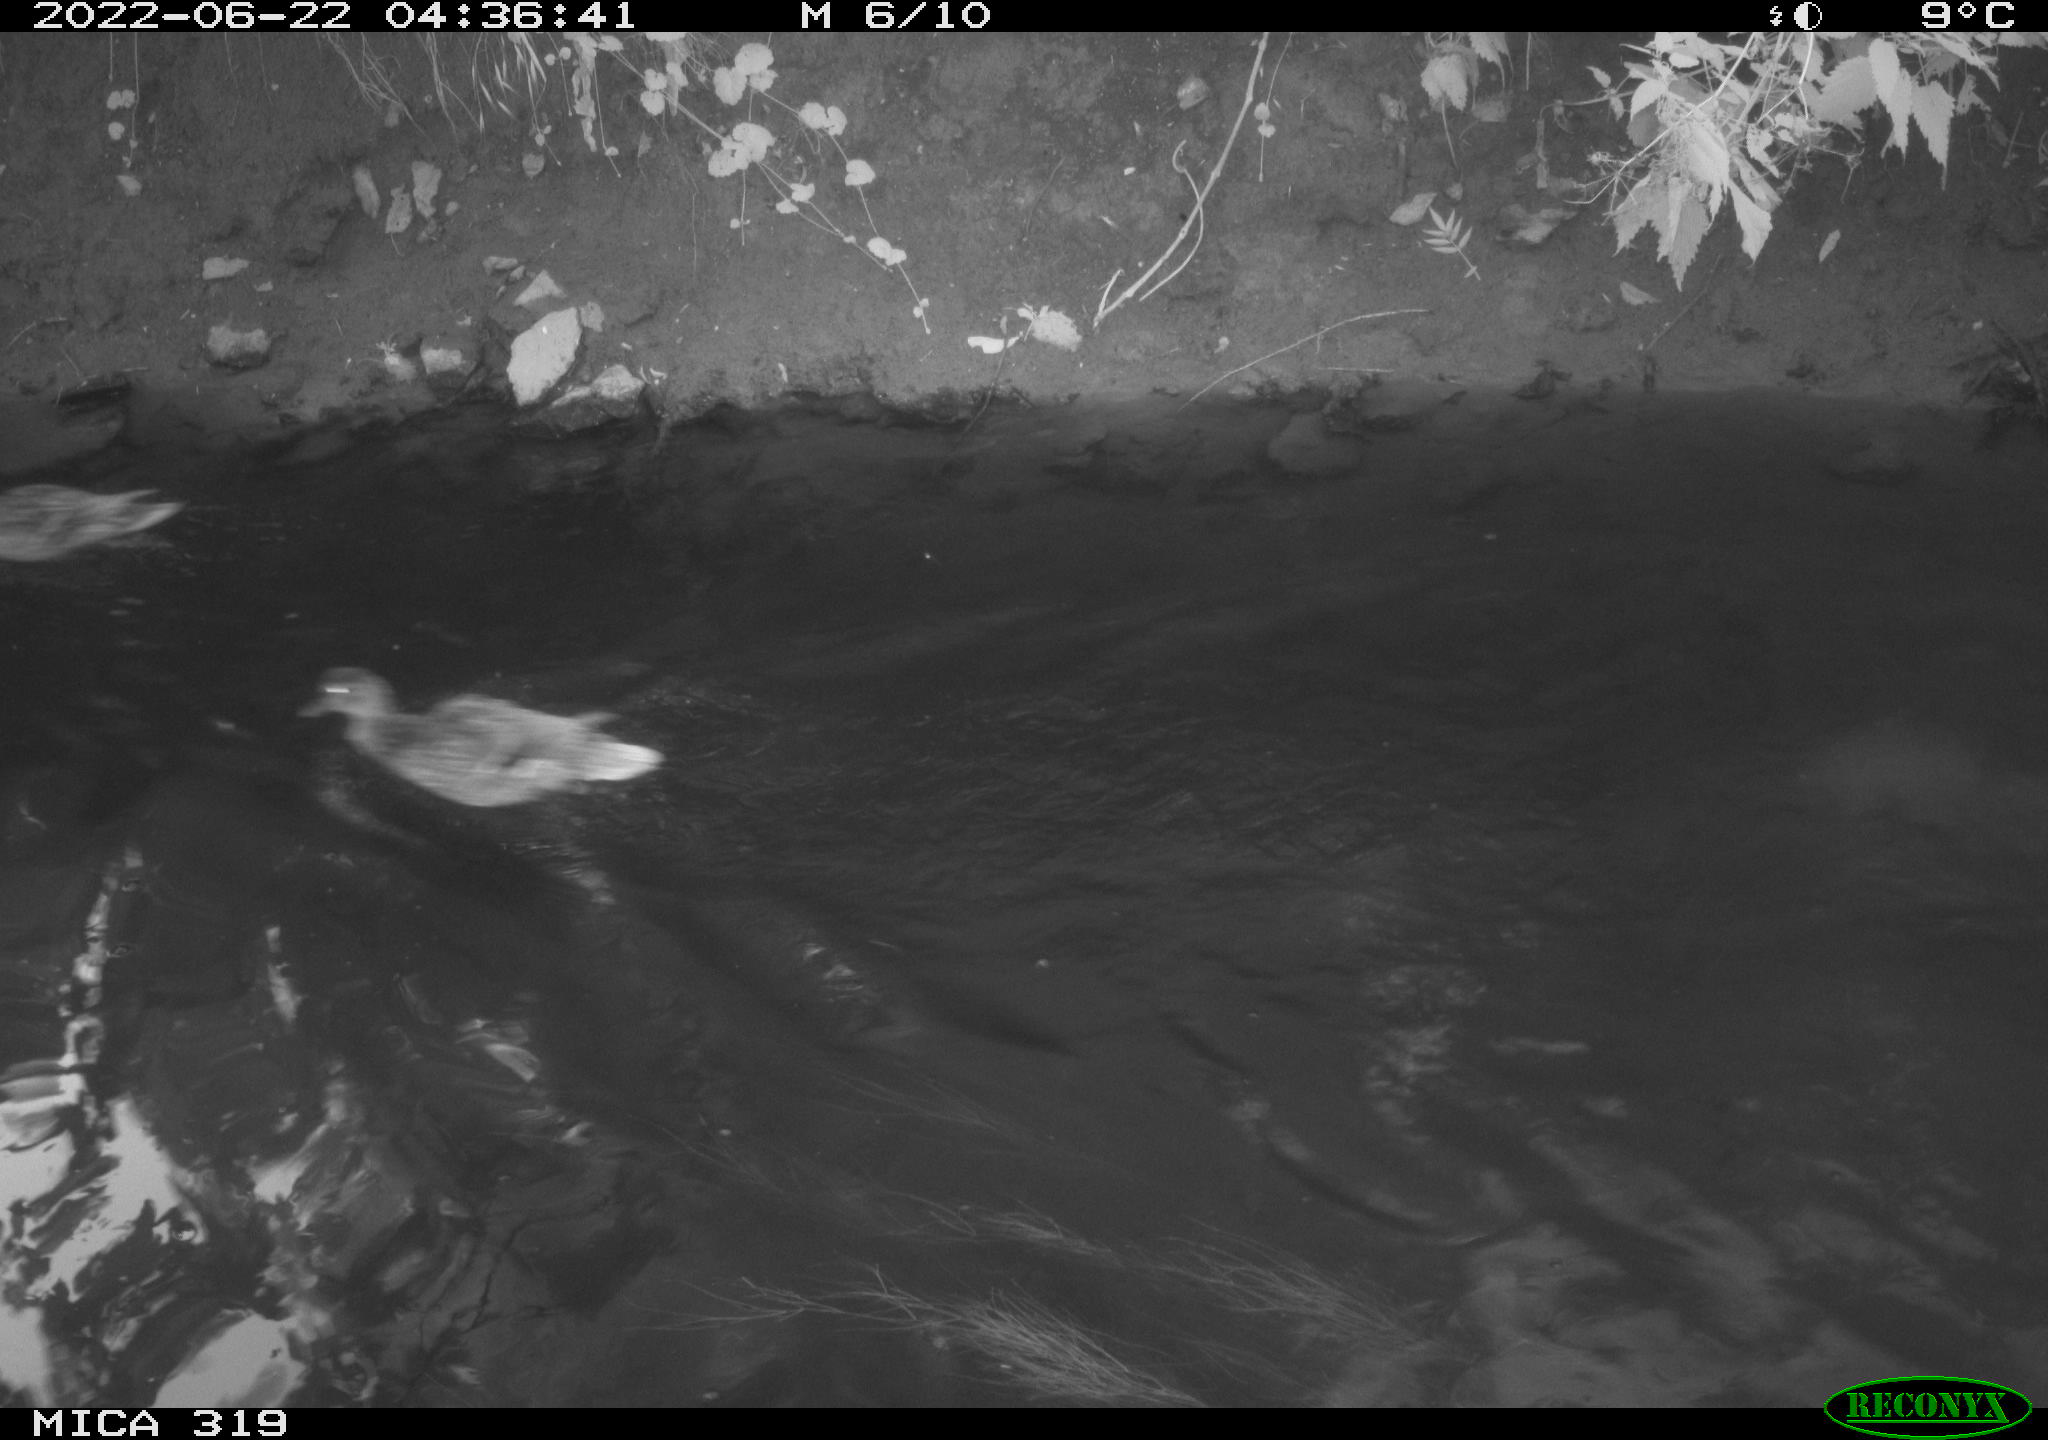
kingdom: Animalia
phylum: Chordata
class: Aves
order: Anseriformes
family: Anatidae
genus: Anas
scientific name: Anas platyrhynchos
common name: Mallard
